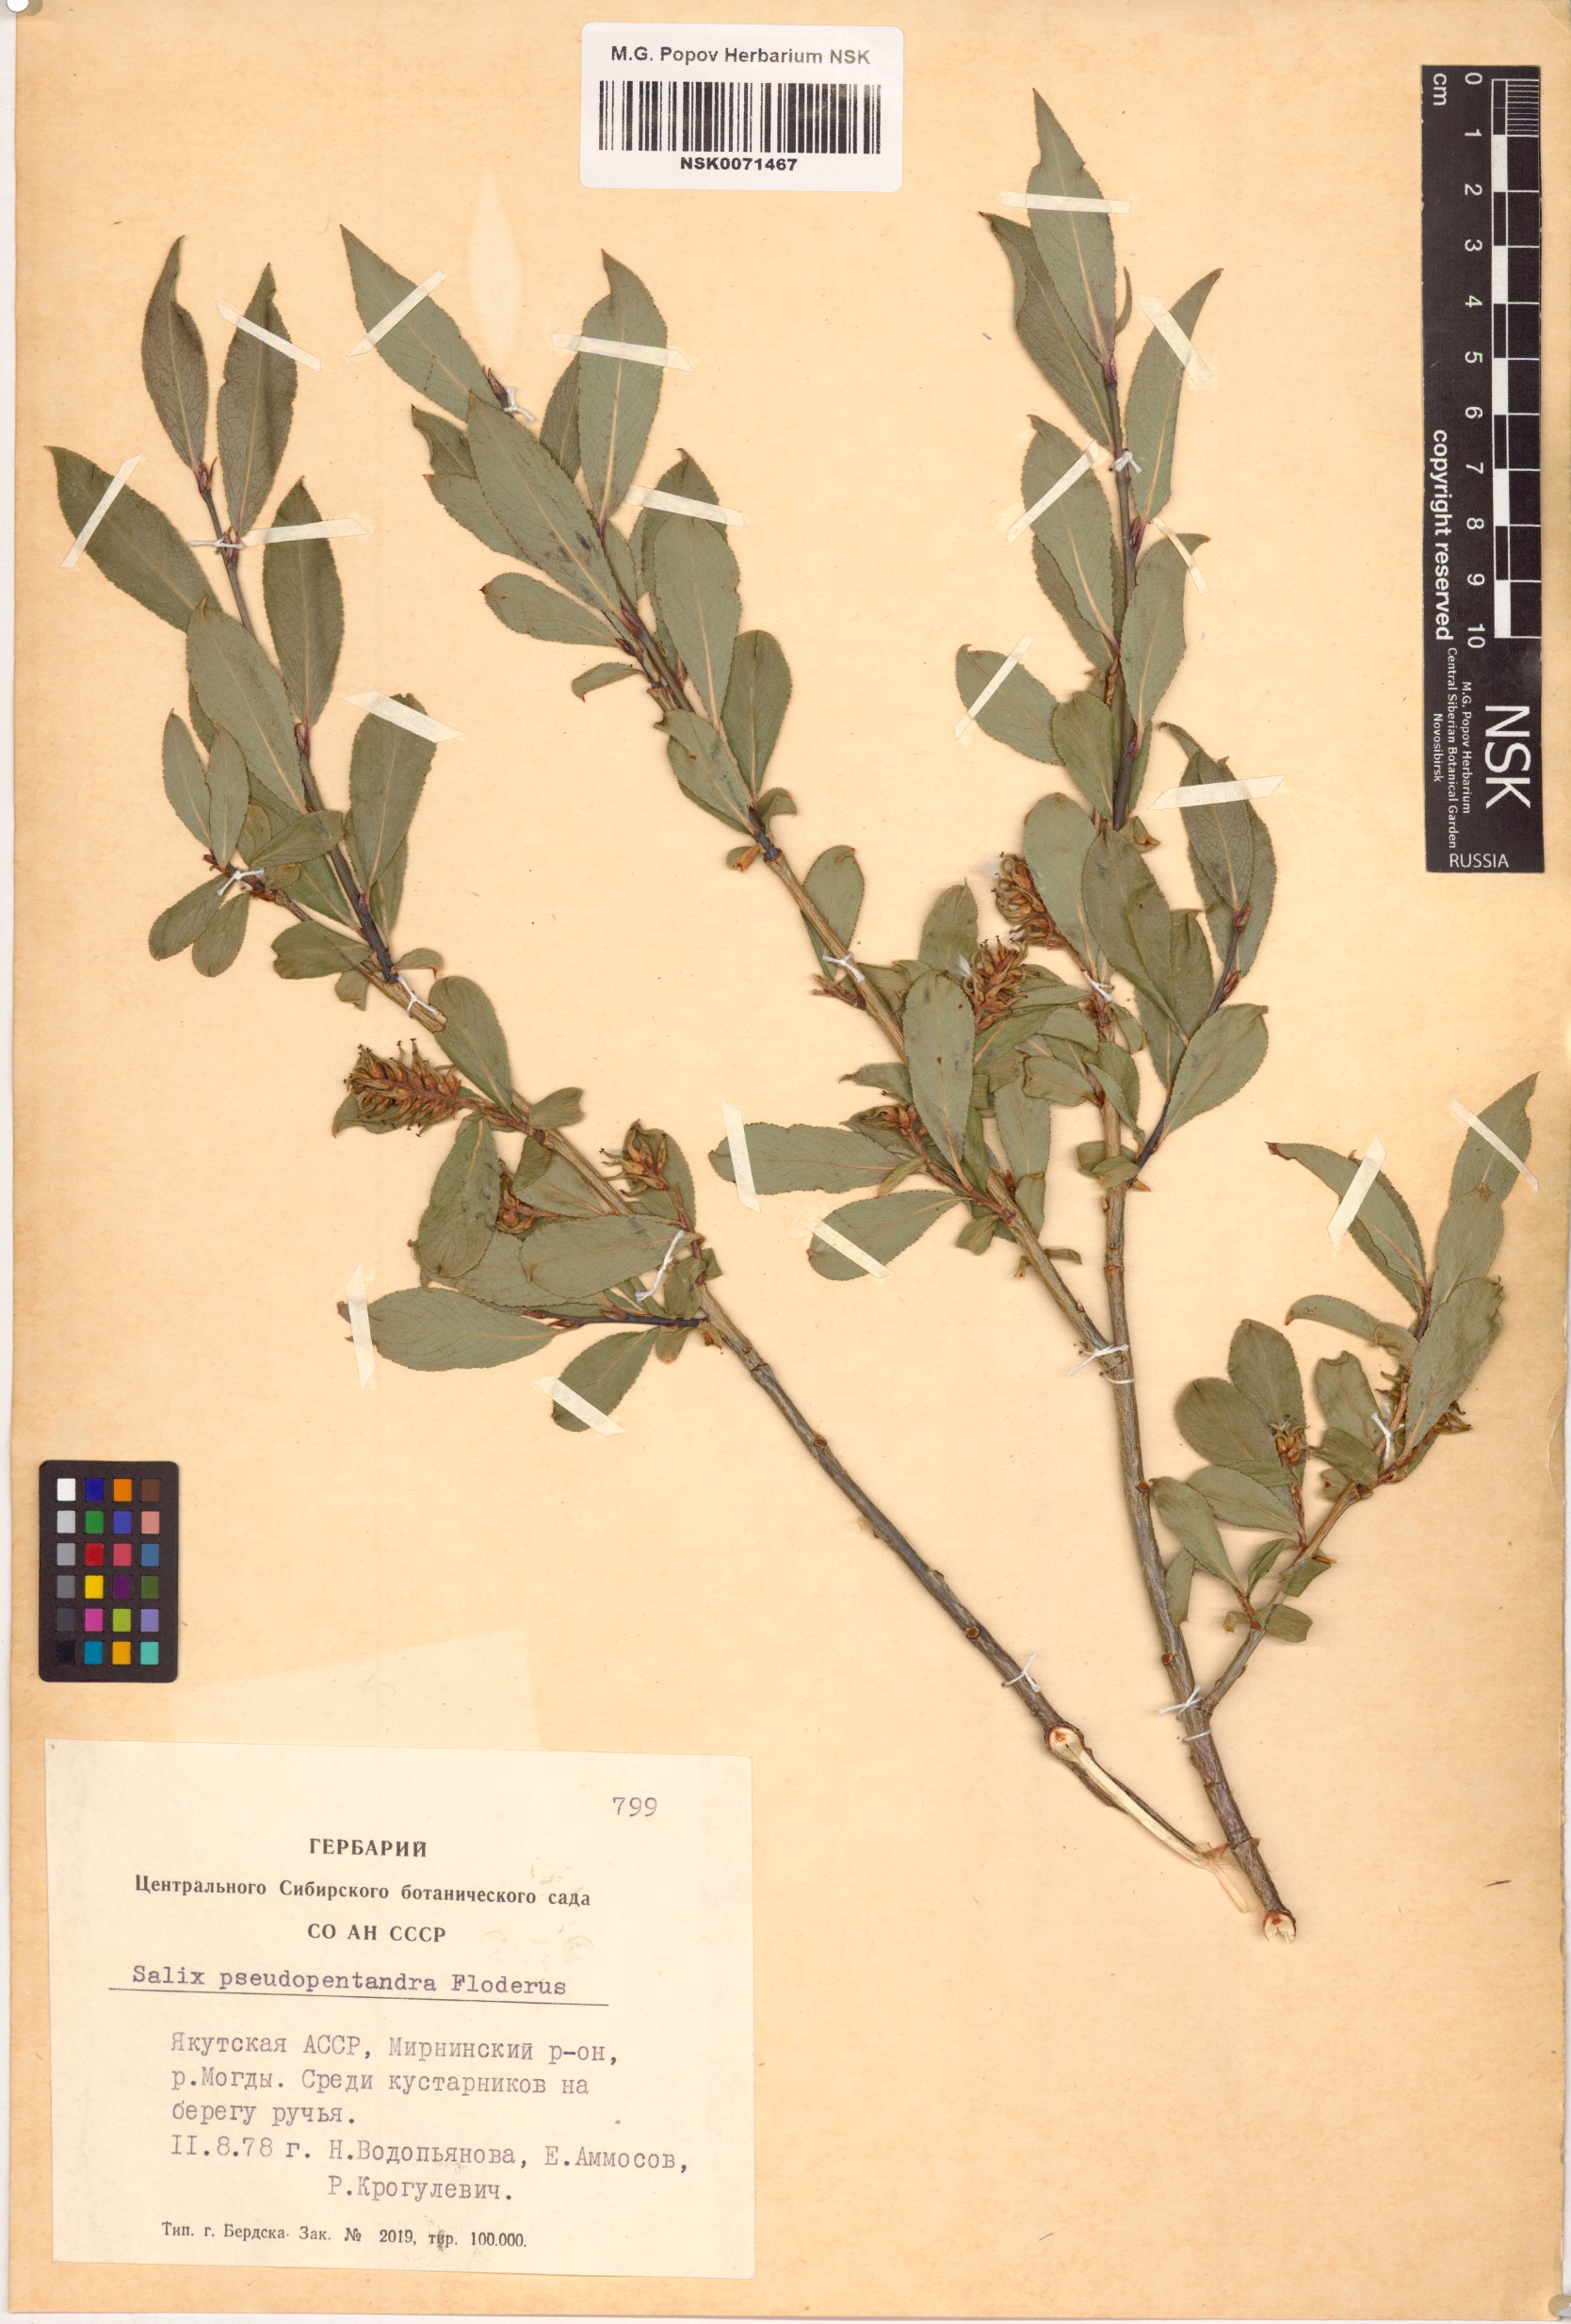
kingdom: Plantae
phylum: Tracheophyta
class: Magnoliopsida
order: Malpighiales
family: Salicaceae
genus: Salix
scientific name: Salix pseudopentandra
